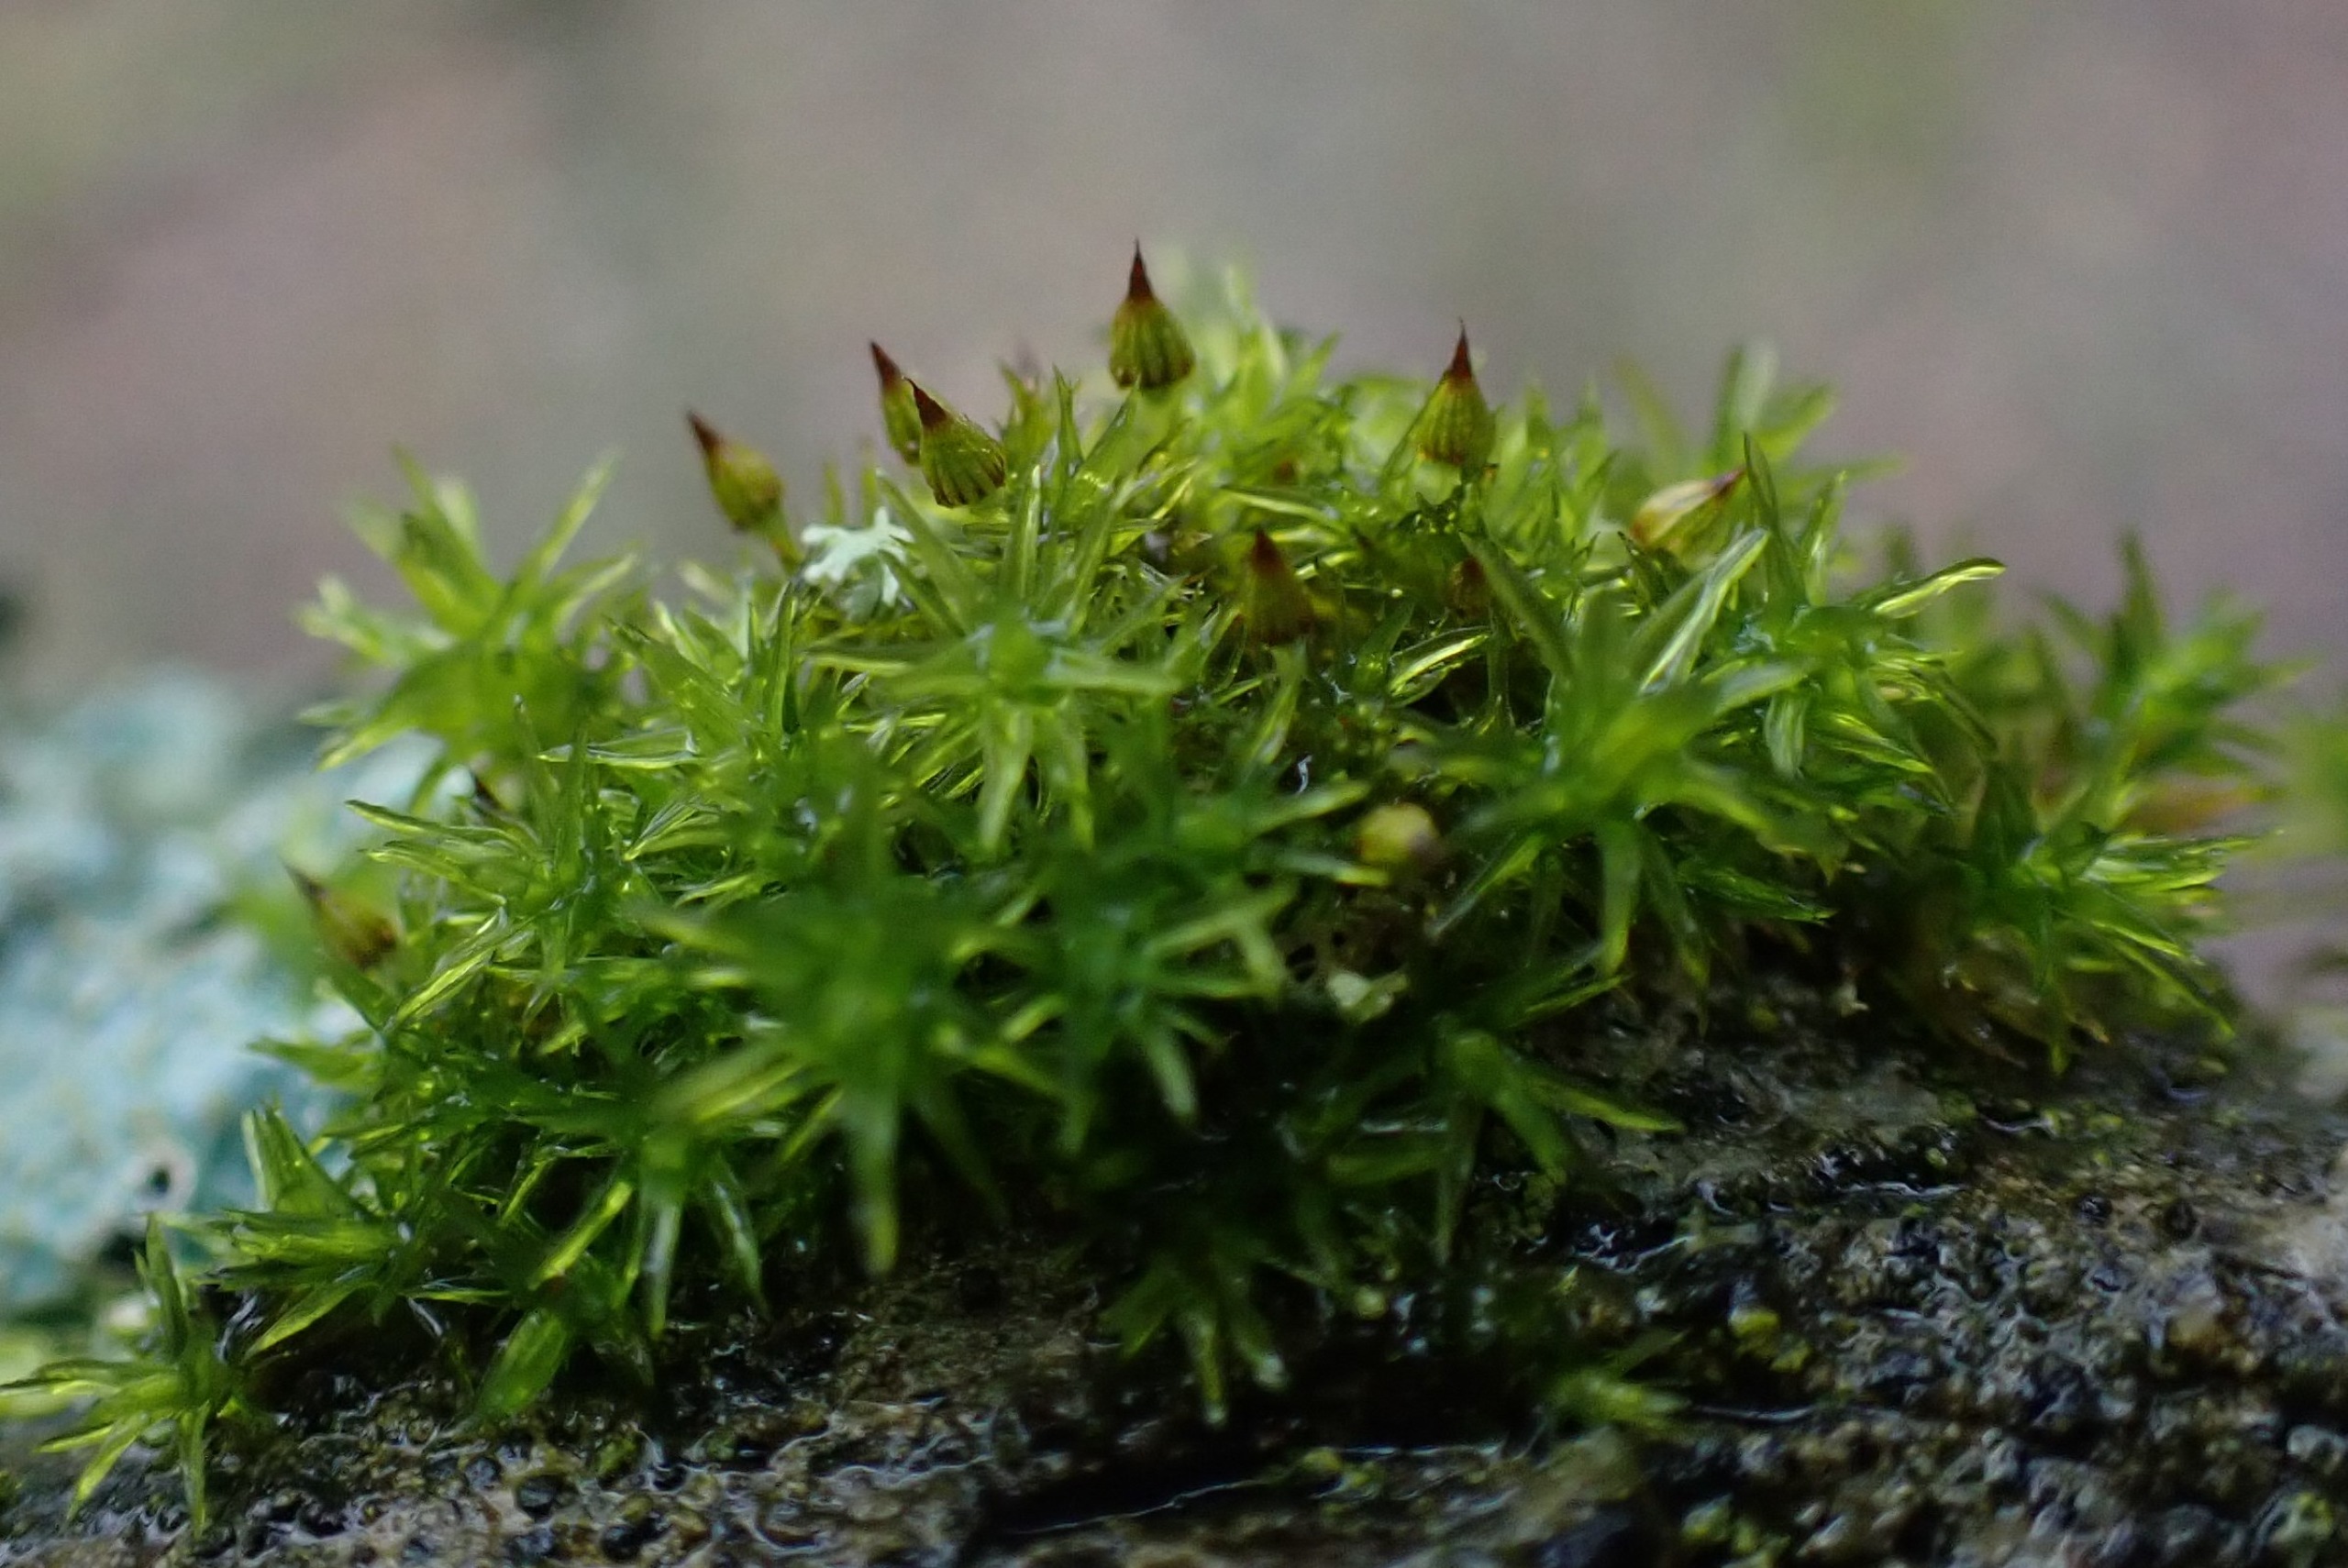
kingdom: Plantae
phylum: Bryophyta
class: Bryopsida
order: Orthotrichales
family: Orthotrichaceae
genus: Orthotrichum
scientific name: Orthotrichum pulchellum
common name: Smuk furehætte
